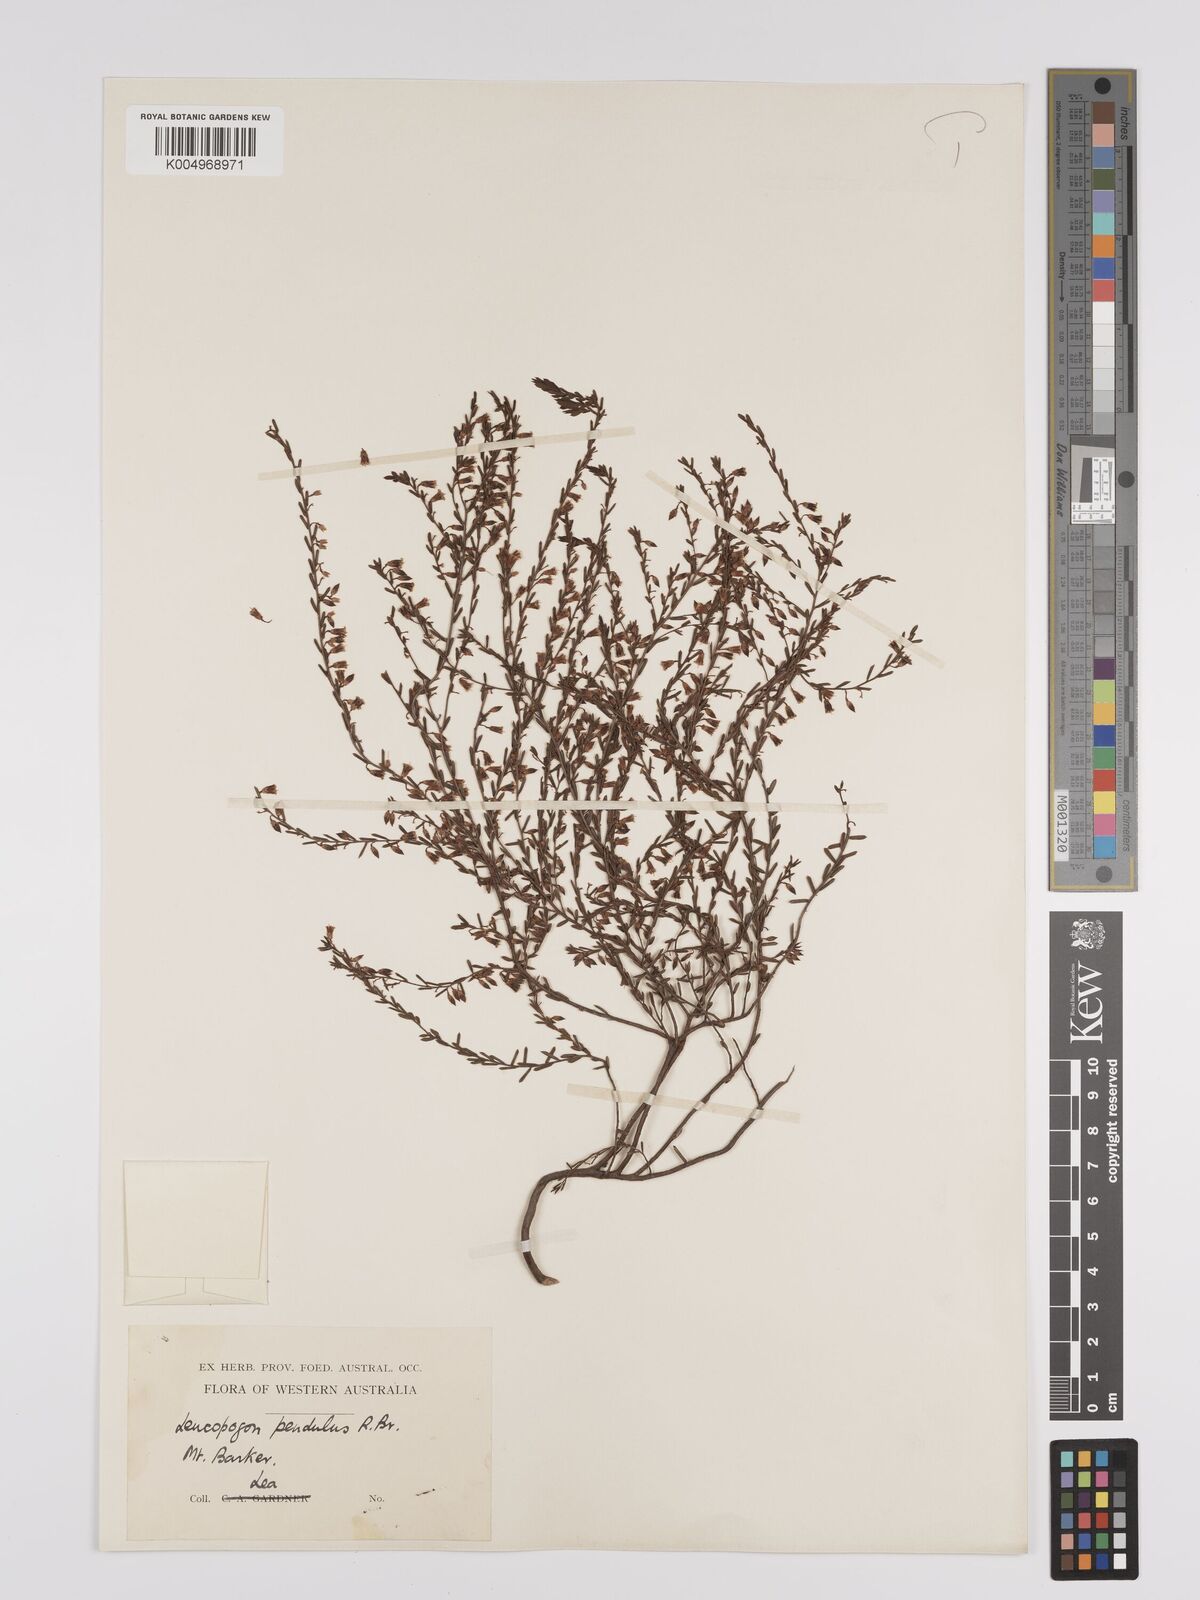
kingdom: Plantae
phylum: Tracheophyta
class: Magnoliopsida
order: Ericales
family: Ericaceae
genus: Styphelia
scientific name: Styphelia pendula
